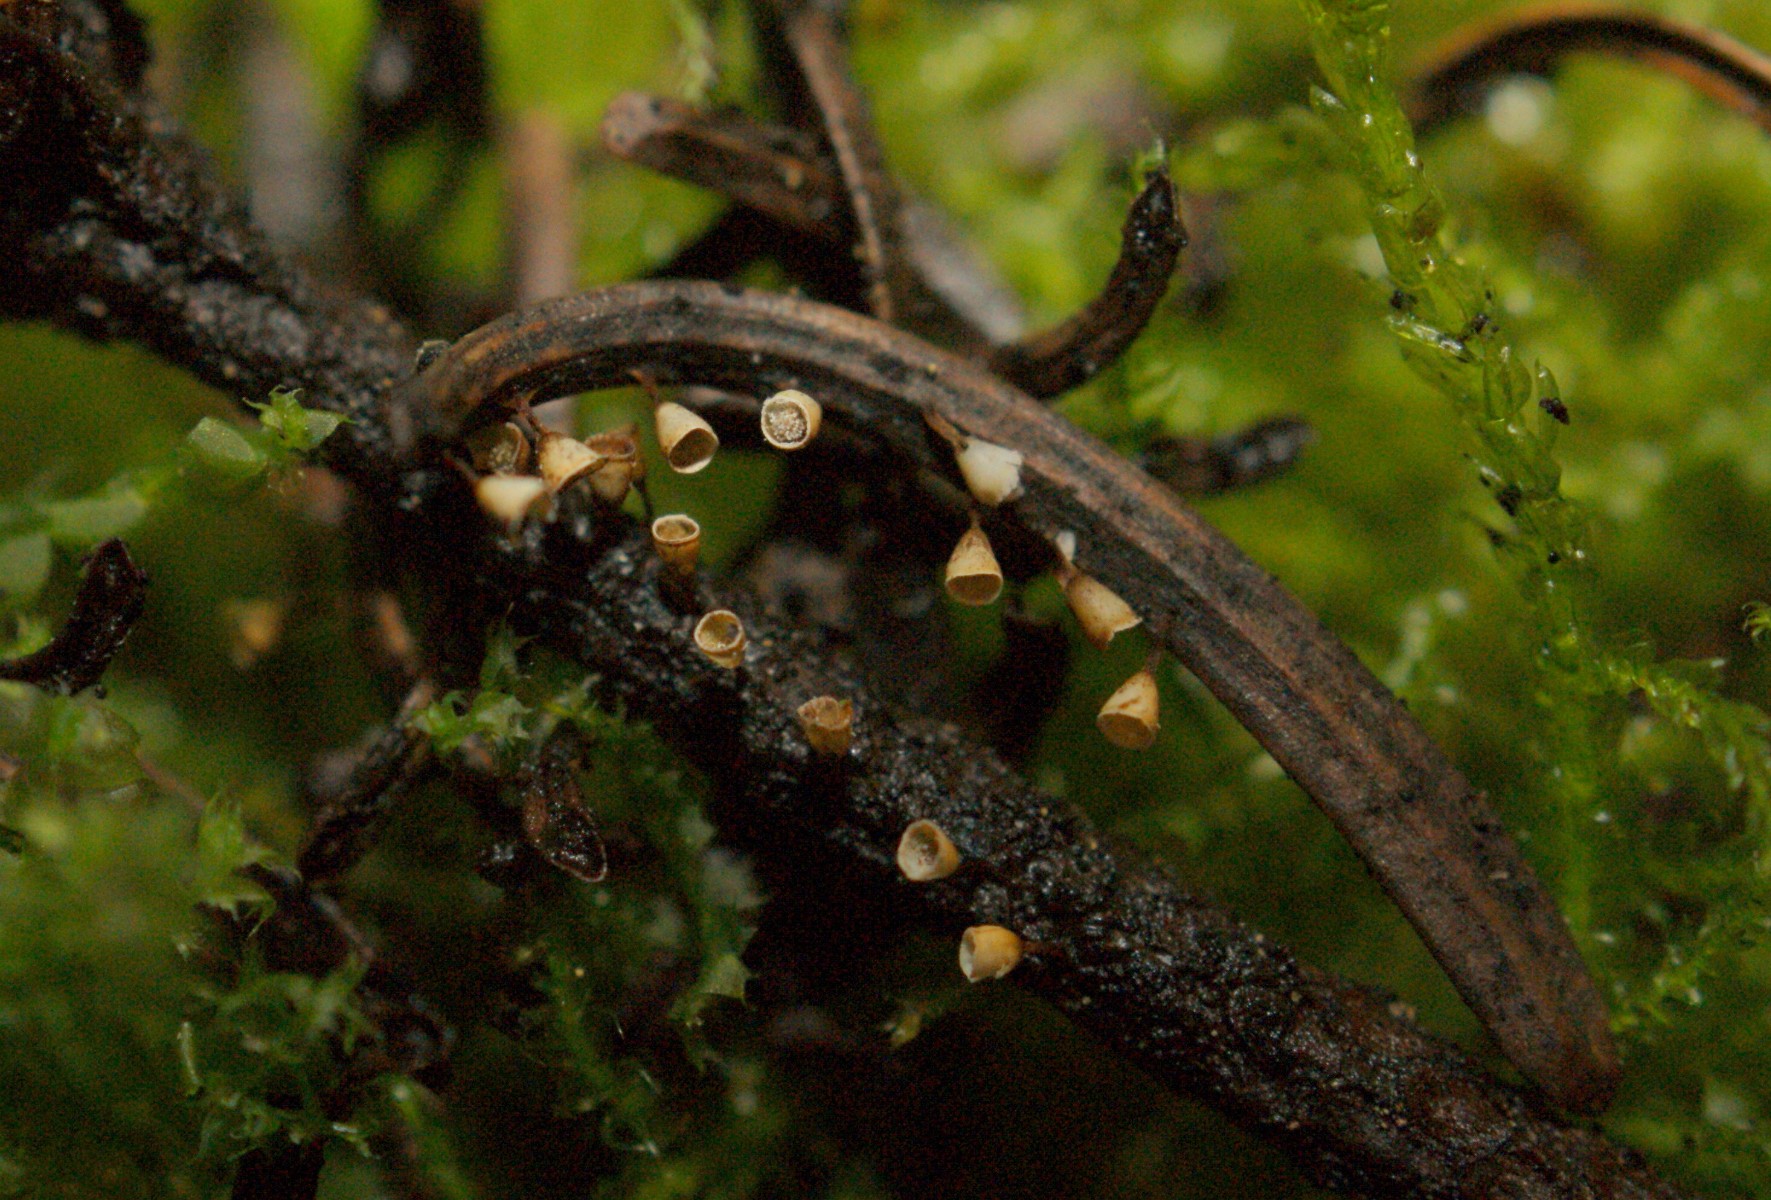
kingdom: Protozoa
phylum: Mycetozoa
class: Myxomycetes
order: Physarales
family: Physaraceae
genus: Craterium
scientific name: Craterium minutum
